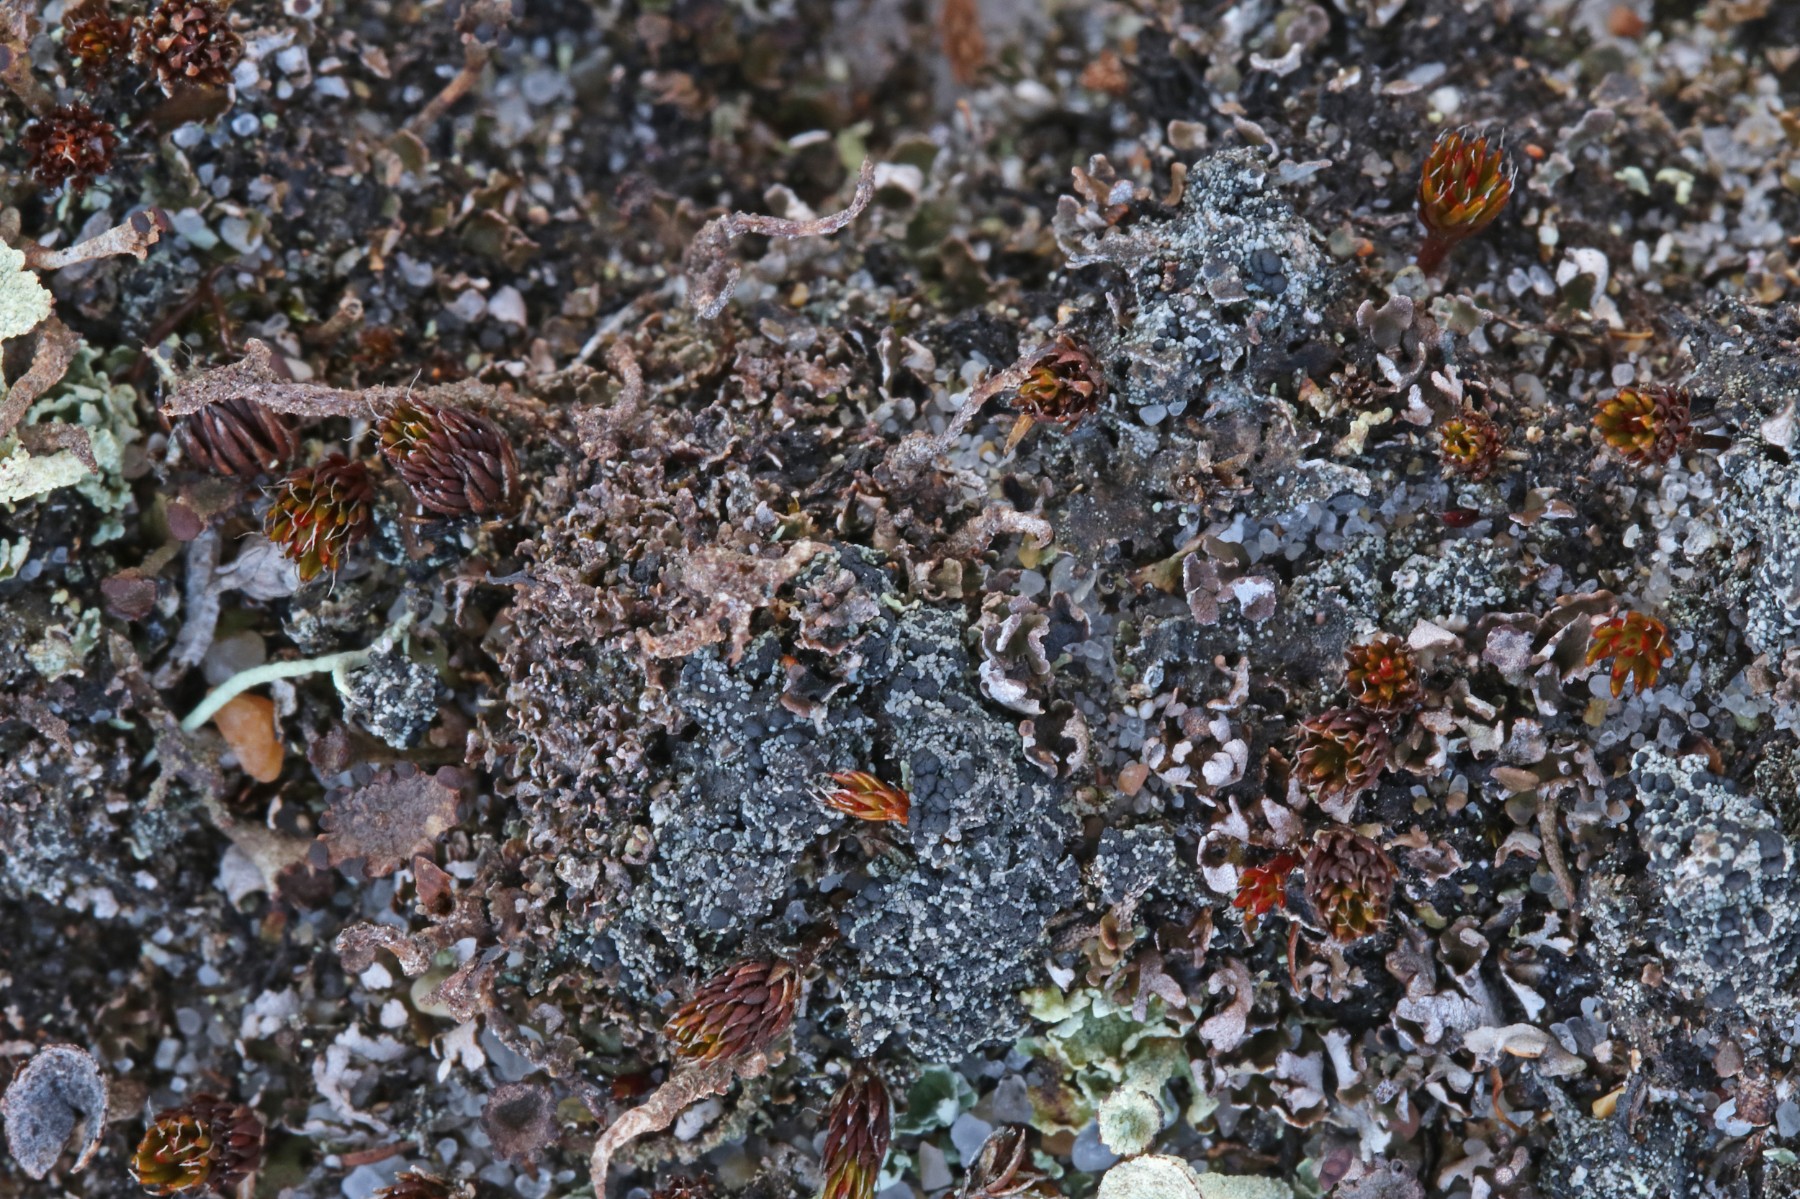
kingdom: Fungi
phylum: Ascomycota
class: Lecanoromycetes
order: Lecanorales
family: Byssolomataceae
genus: Micarea
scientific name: Micarea lignaria
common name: tørve-knaplav
